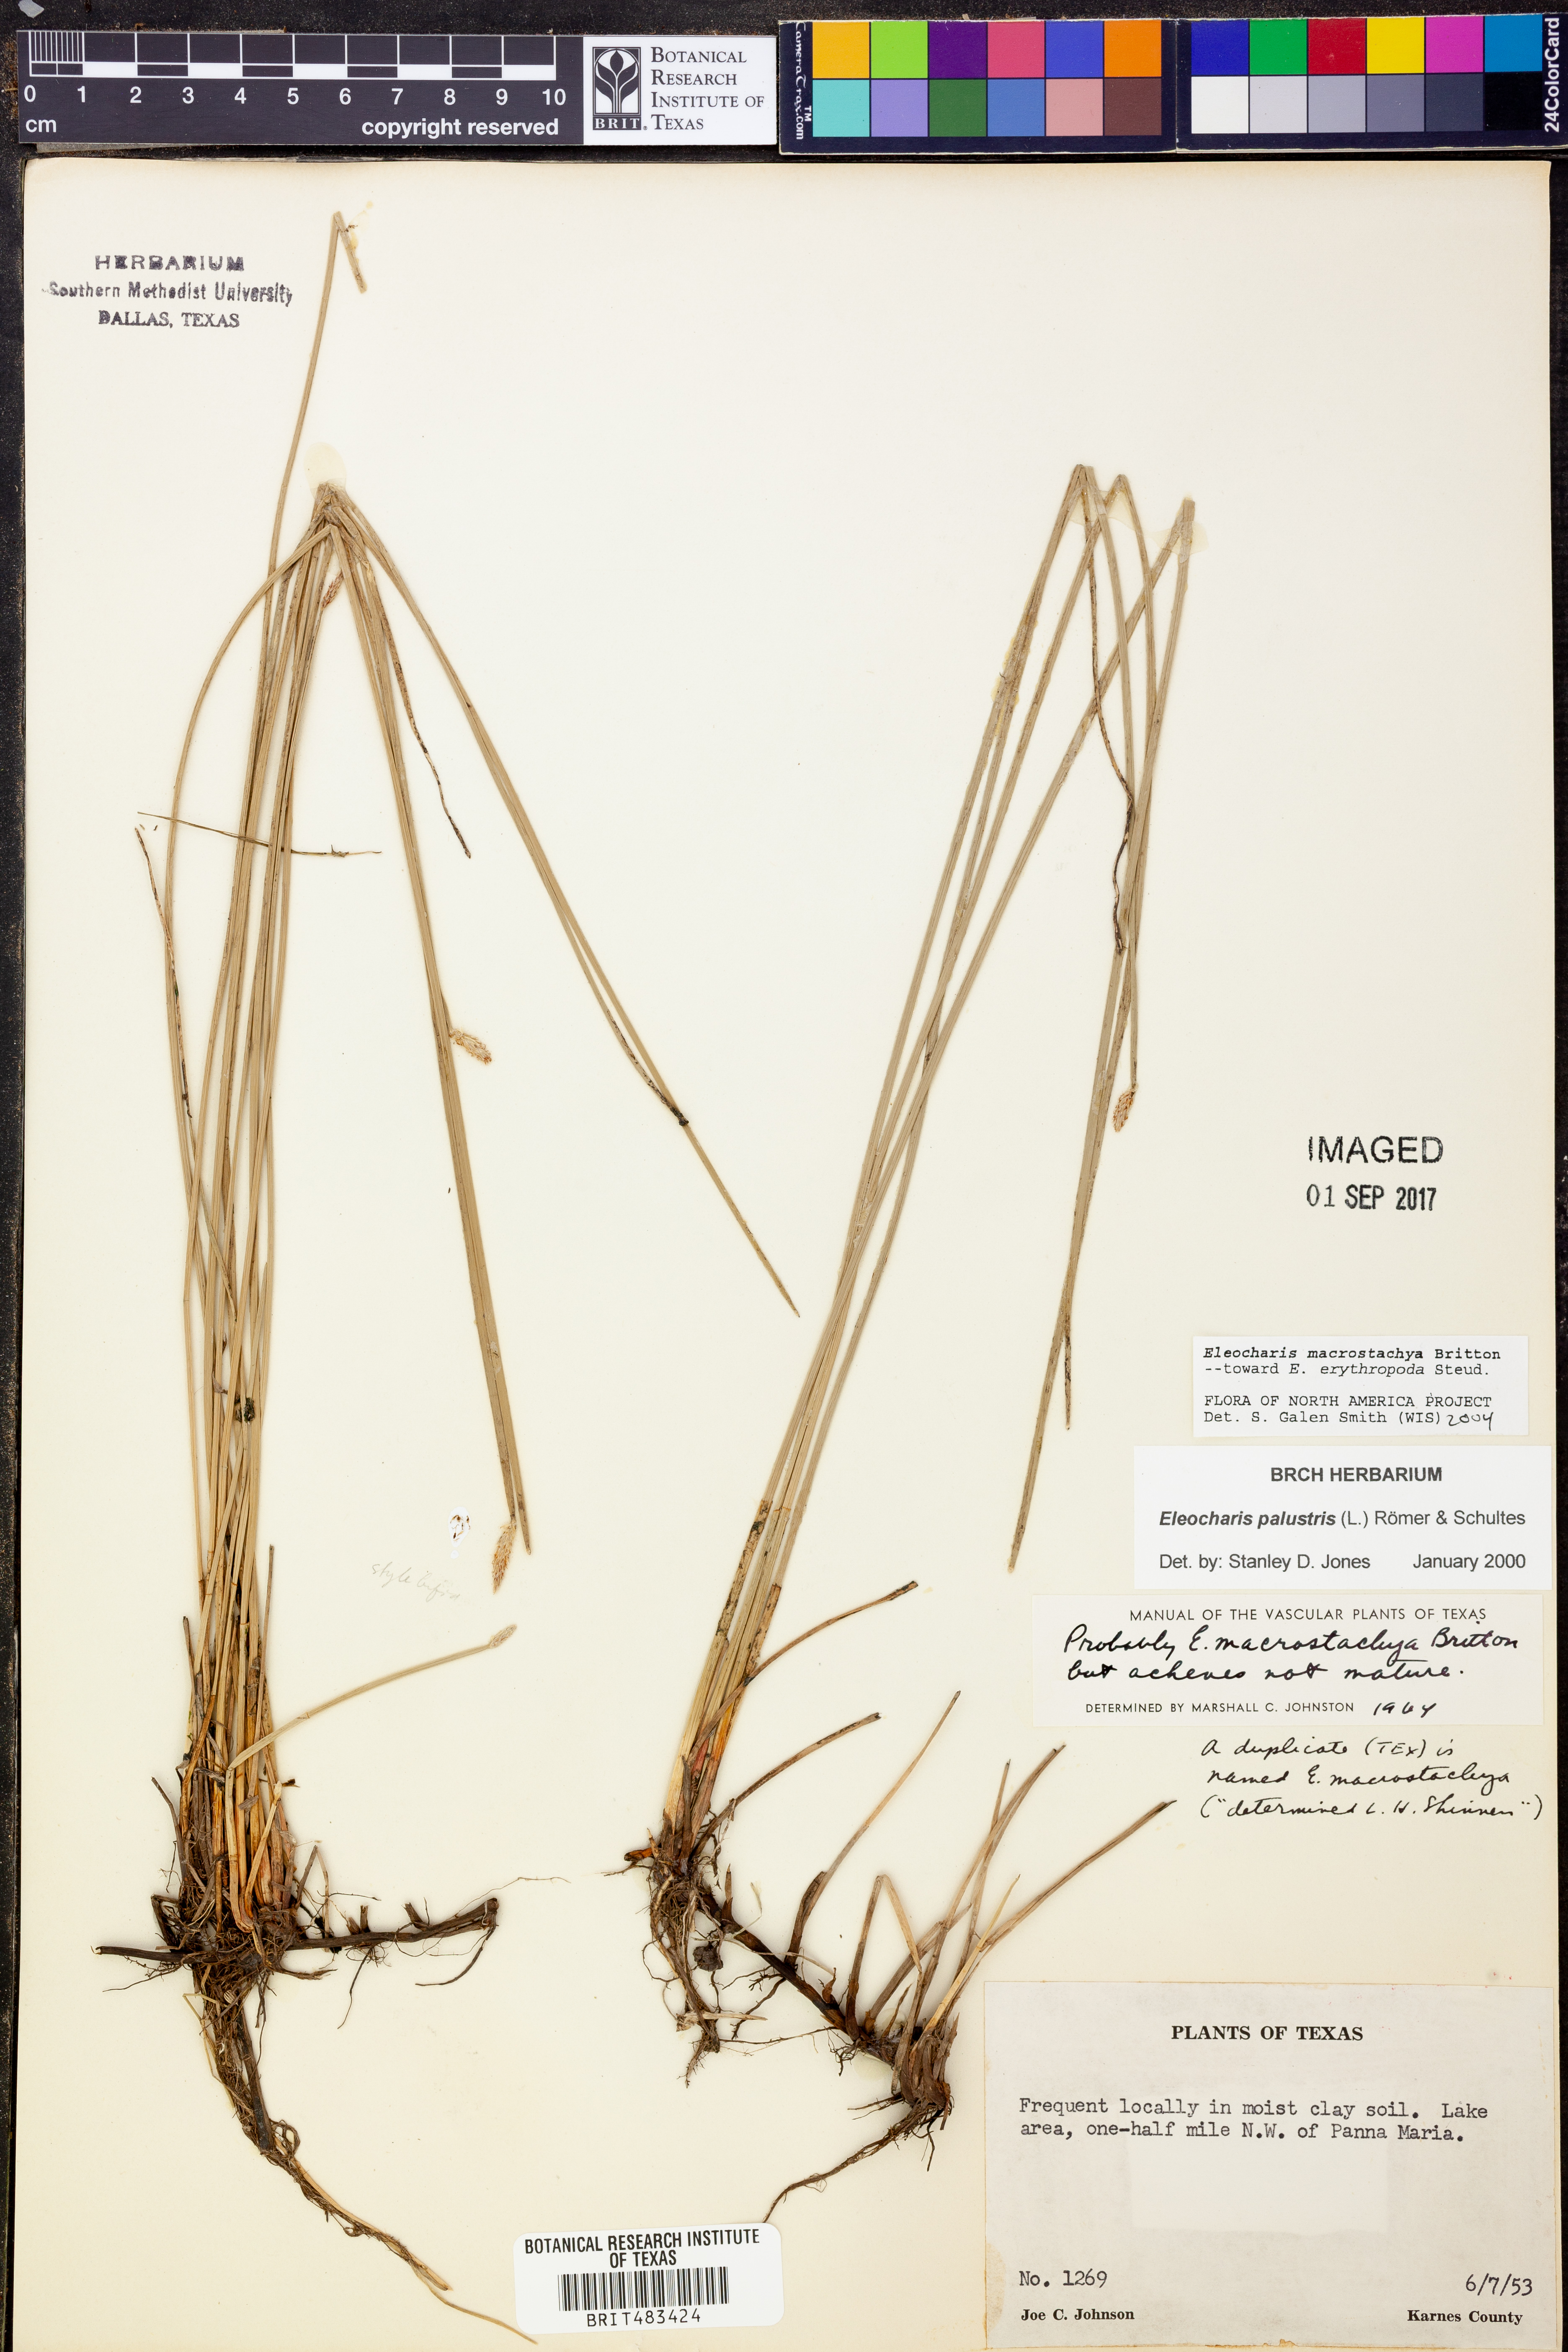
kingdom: Plantae
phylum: Tracheophyta
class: Liliopsida
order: Poales
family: Cyperaceae
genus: Eleocharis
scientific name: Eleocharis macrostachya
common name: Pale spikerush
